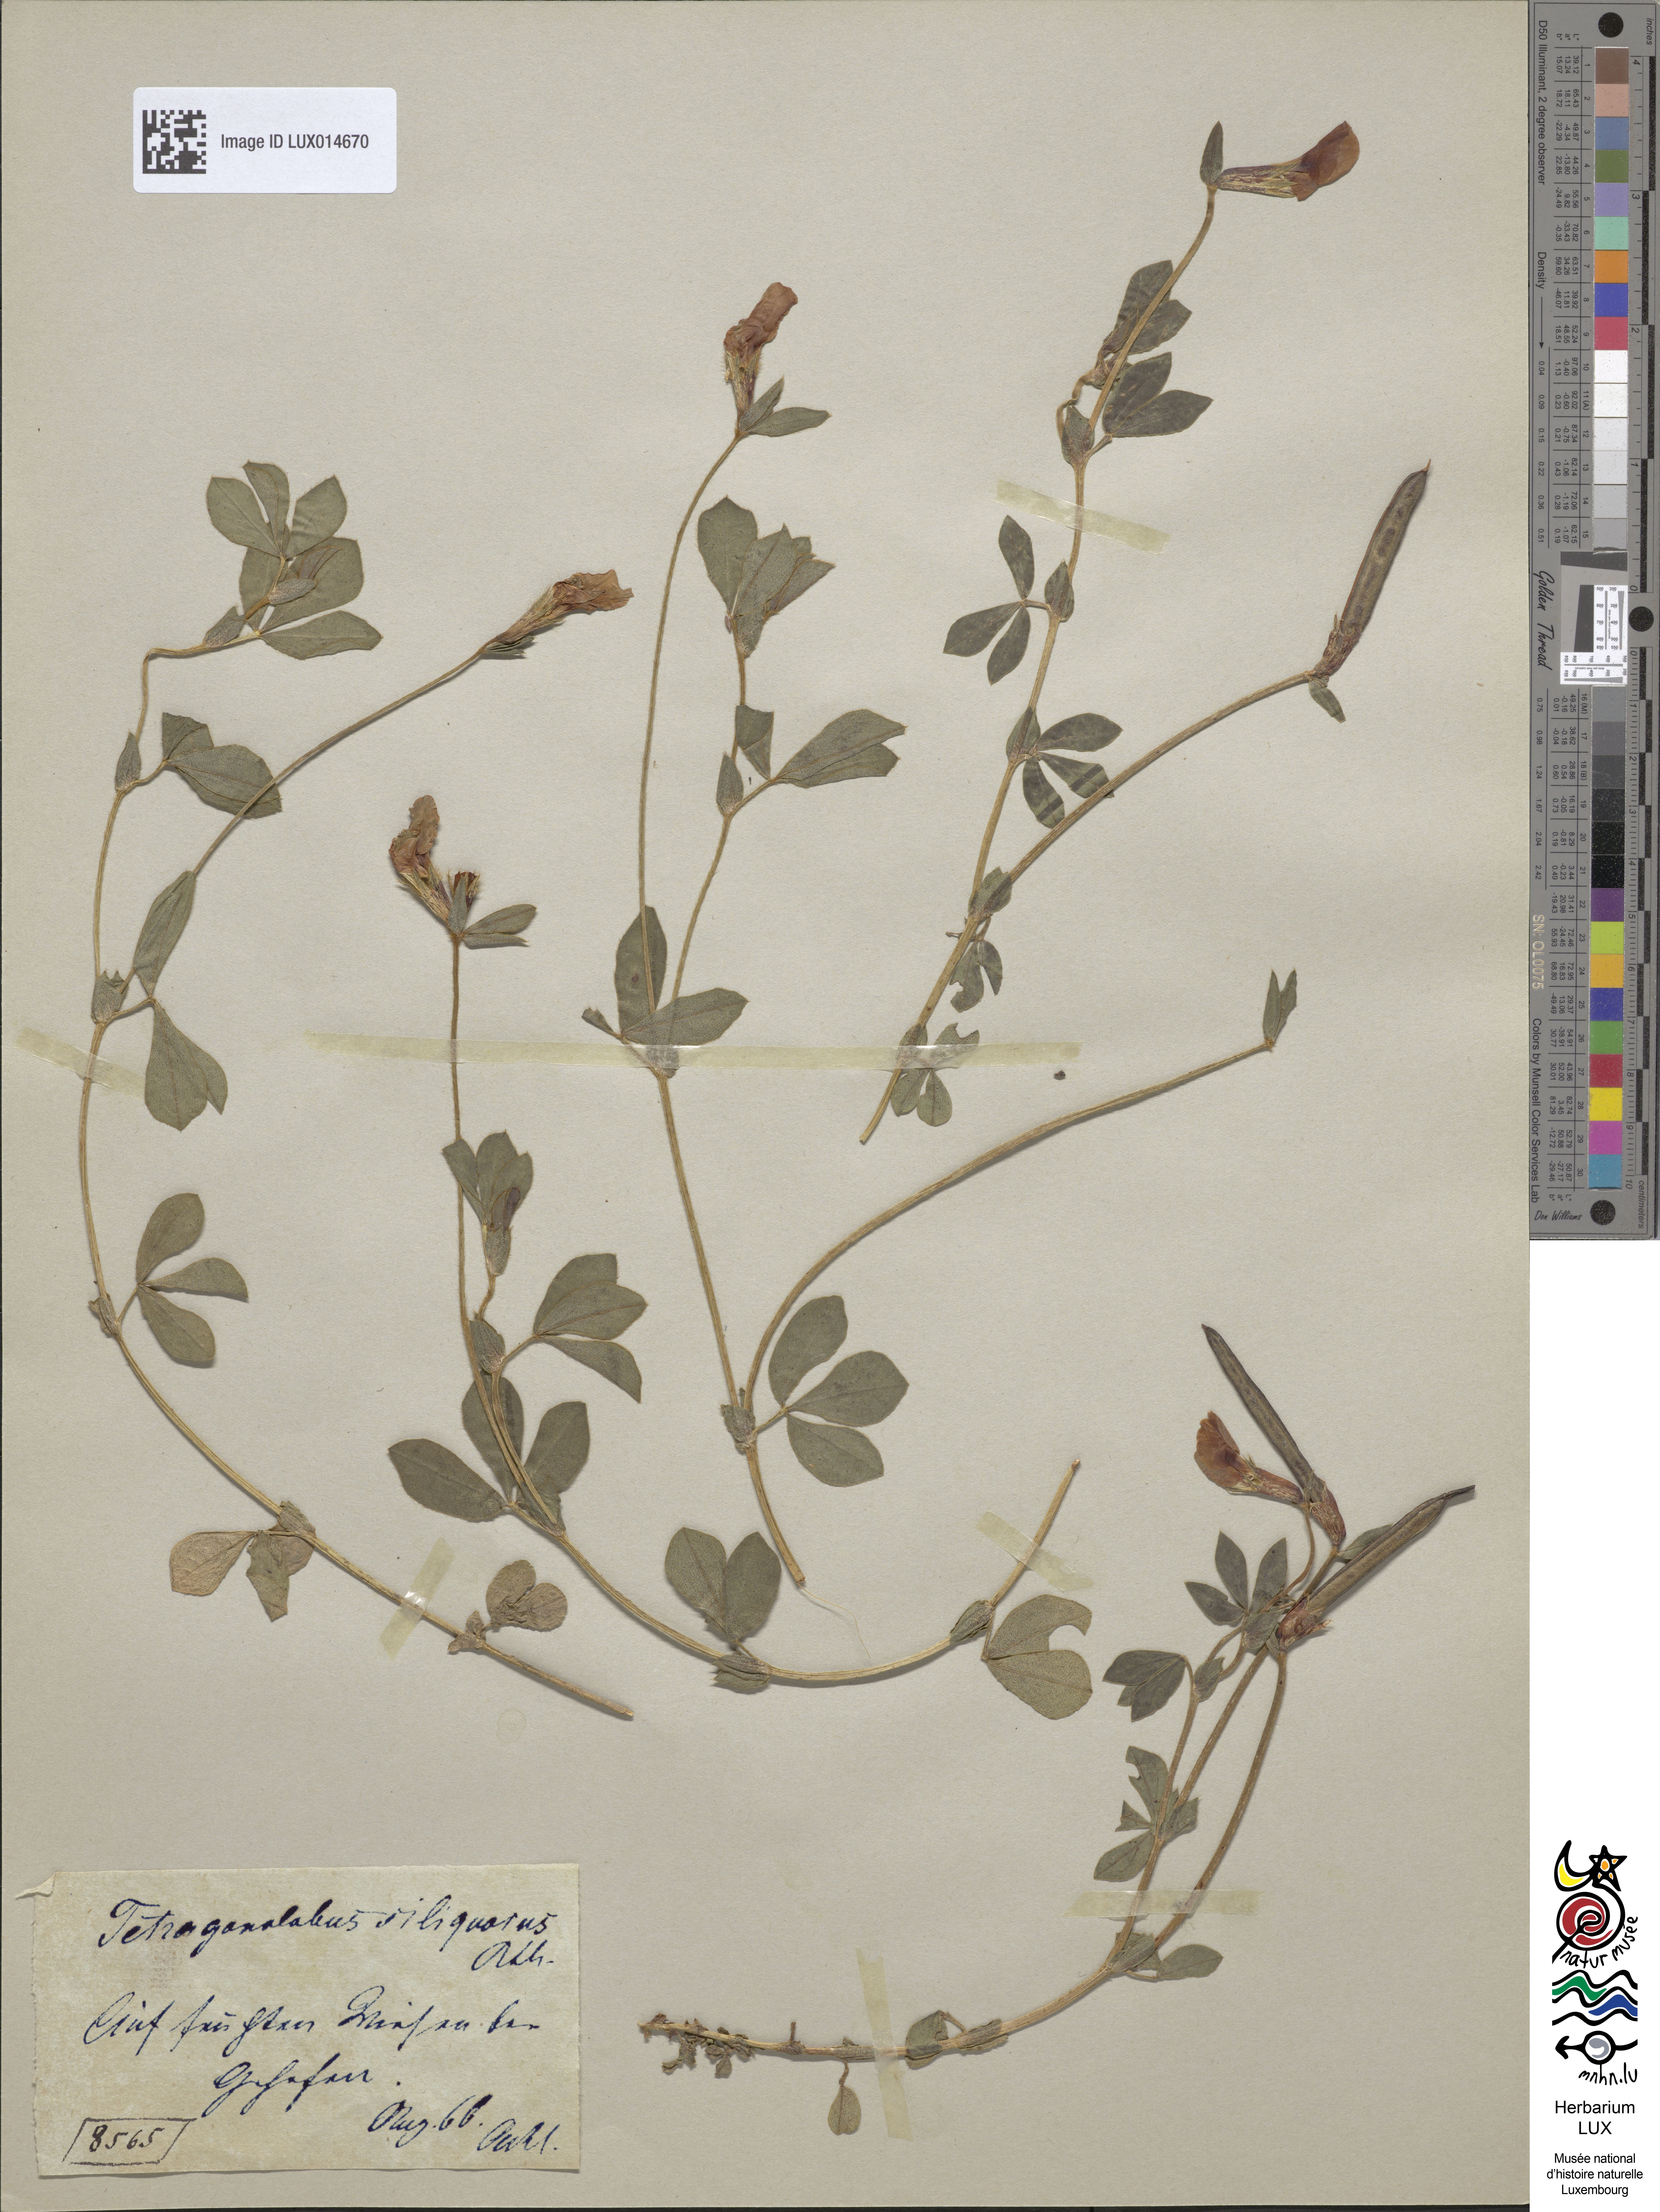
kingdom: Plantae
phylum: Tracheophyta
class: Magnoliopsida
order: Fabales
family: Fabaceae
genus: Lotus
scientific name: Lotus maritimus
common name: Dragon's-teeth
